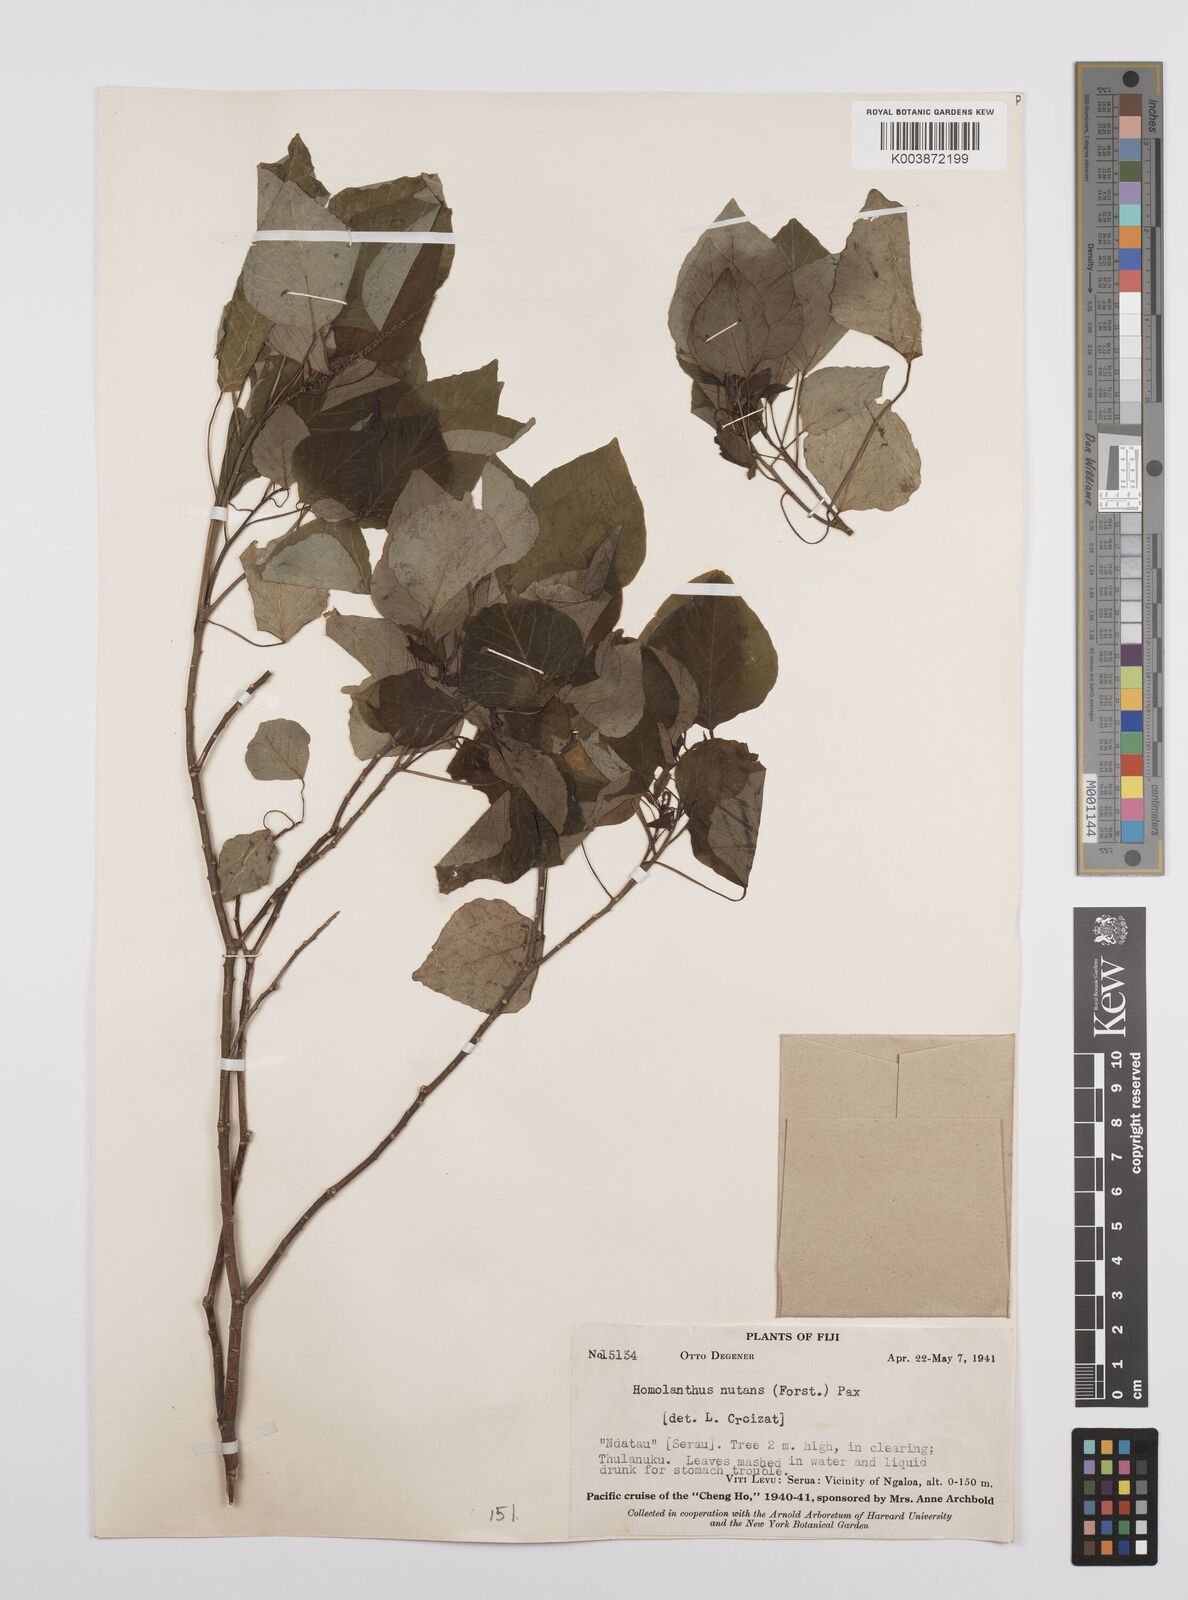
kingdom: Plantae
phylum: Tracheophyta
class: Magnoliopsida
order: Malpighiales
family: Euphorbiaceae
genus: Homalanthus
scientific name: Homalanthus nutans
